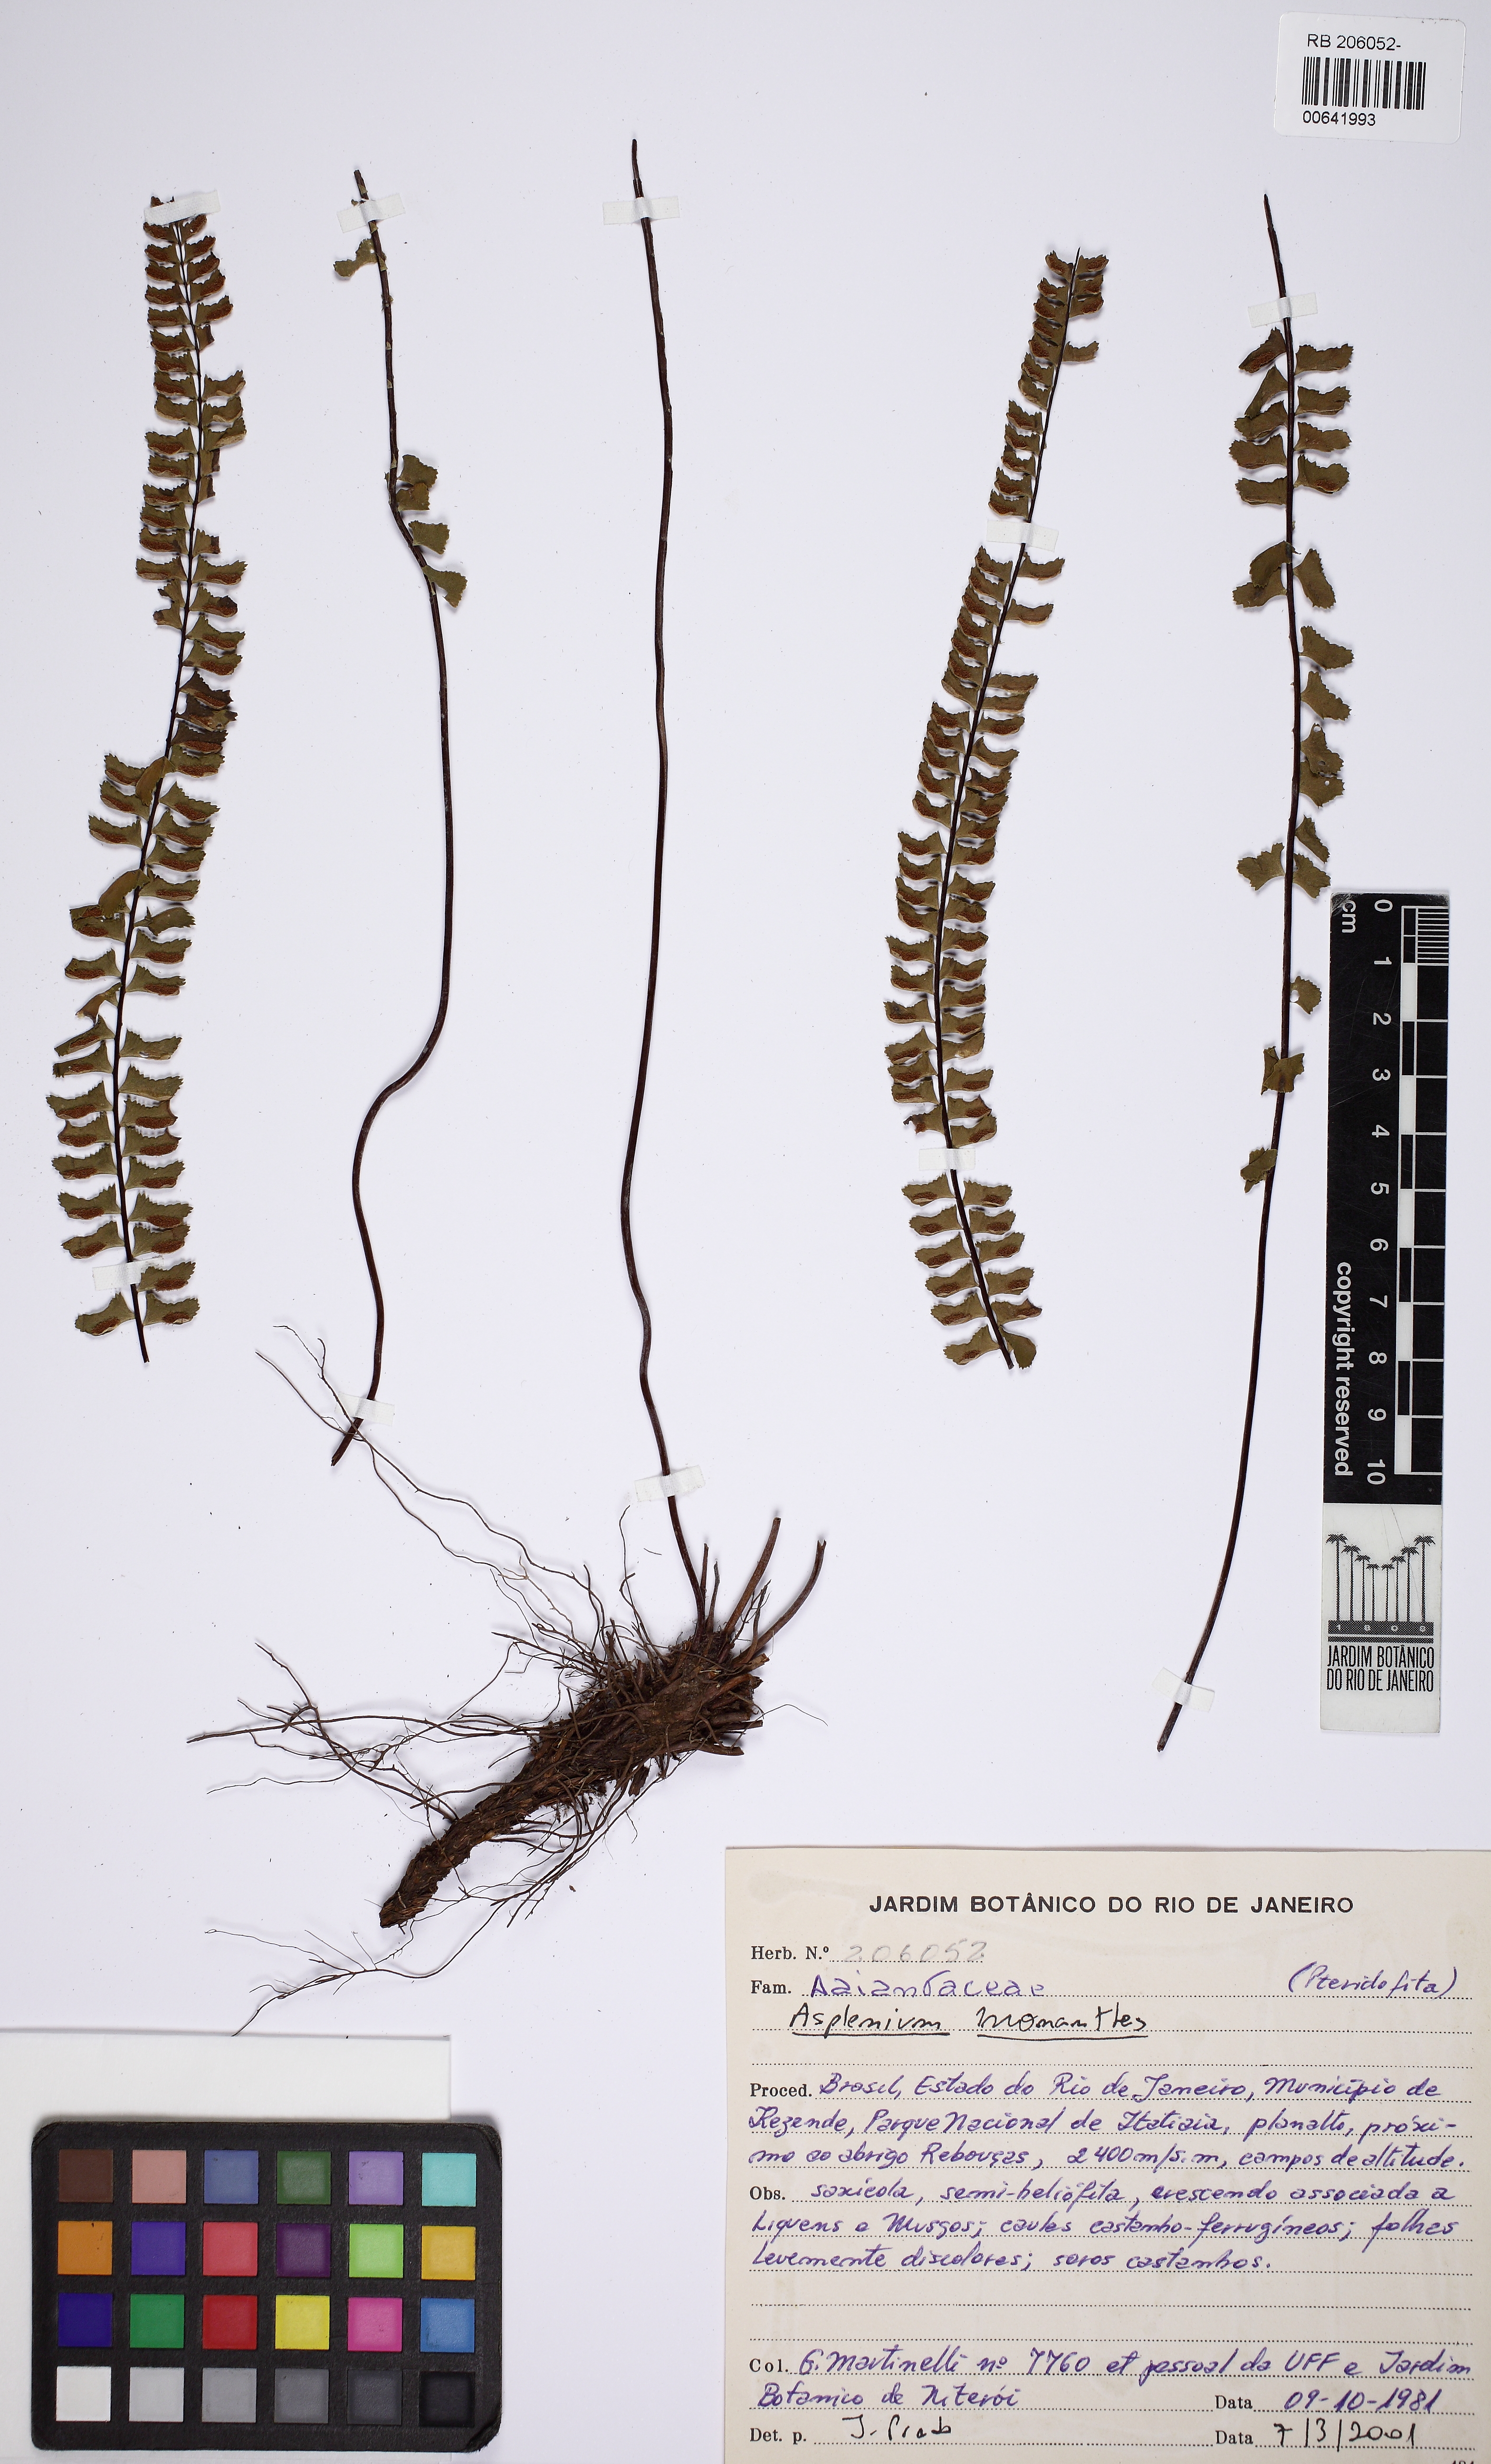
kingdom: Plantae
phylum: Tracheophyta
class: Polypodiopsida
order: Polypodiales
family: Aspleniaceae
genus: Asplenium
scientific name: Asplenium monanthes
